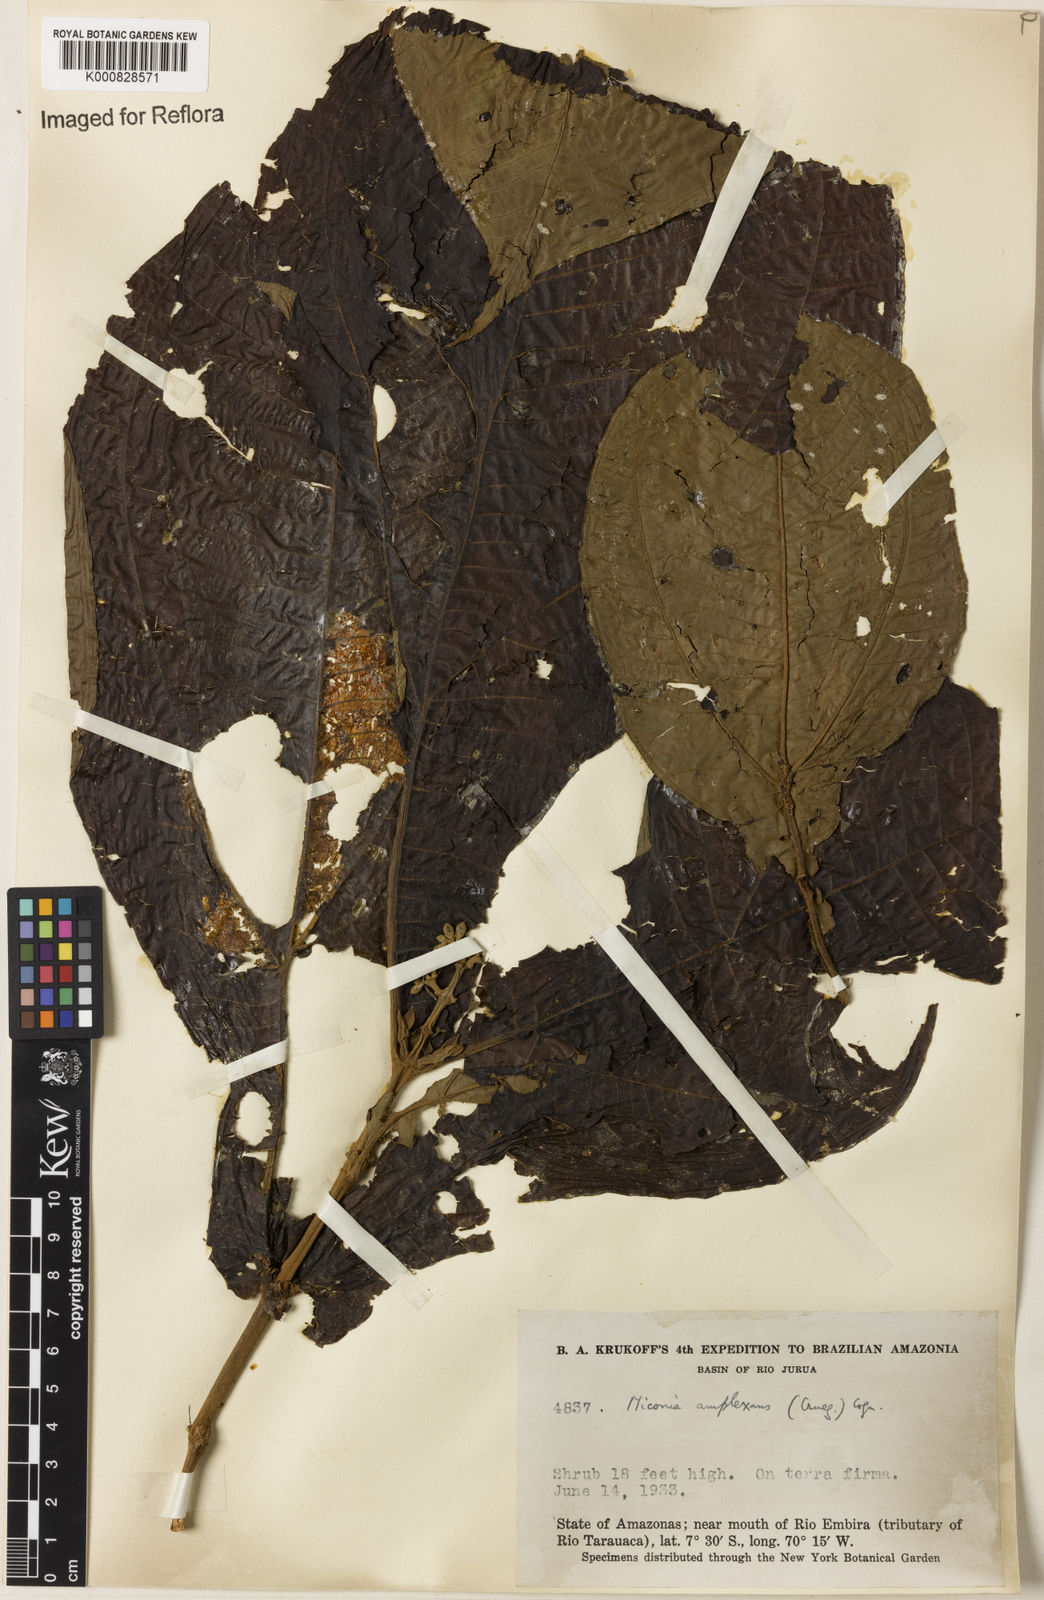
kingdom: Plantae
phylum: Tracheophyta
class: Magnoliopsida
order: Myrtales
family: Melastomataceae
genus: Miconia
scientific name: Miconia tomentosa
